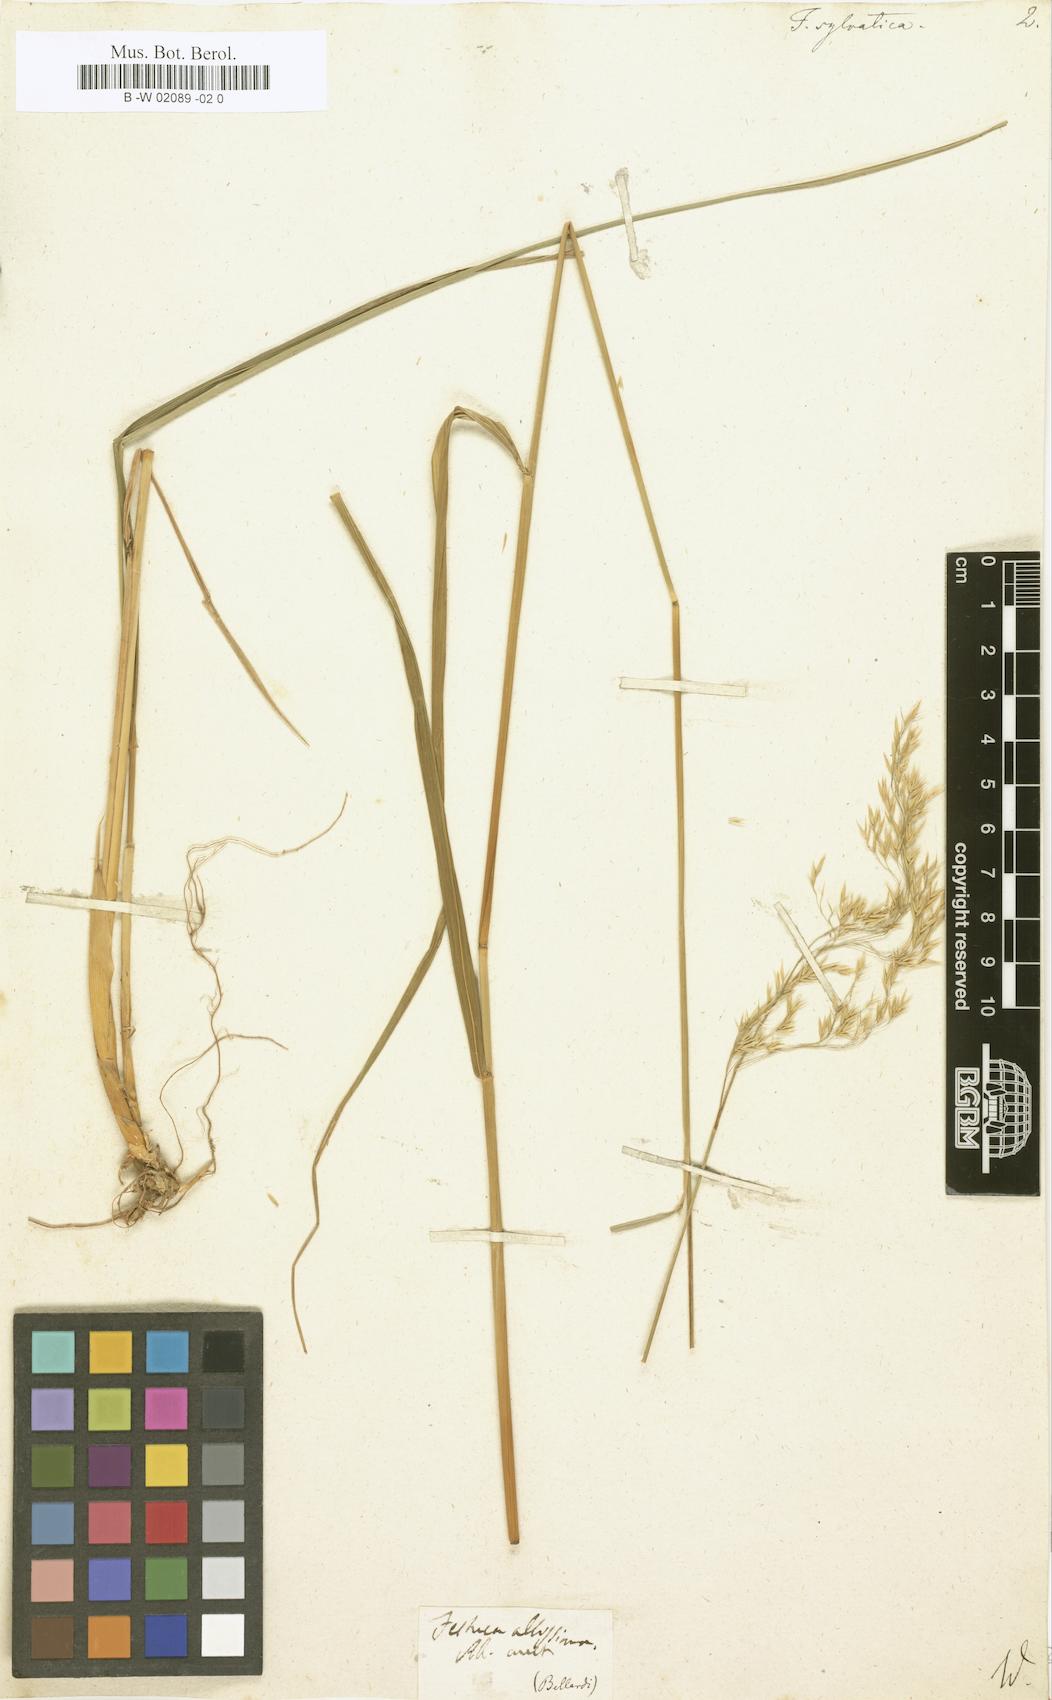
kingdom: Plantae
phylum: Tracheophyta
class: Liliopsida
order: Poales
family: Poaceae
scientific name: Poaceae
